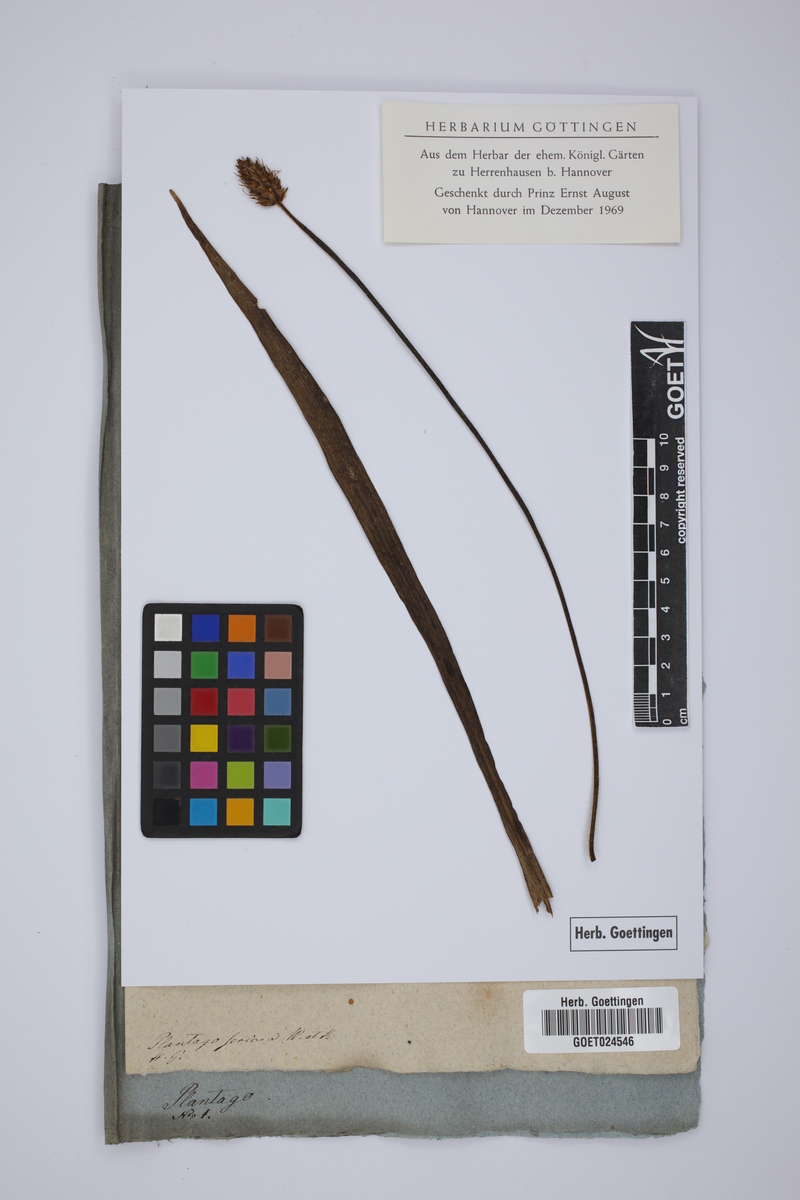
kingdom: Plantae
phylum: Tracheophyta
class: Magnoliopsida
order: Lamiales
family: Plantaginaceae
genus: Plantago
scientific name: Plantago argentea
